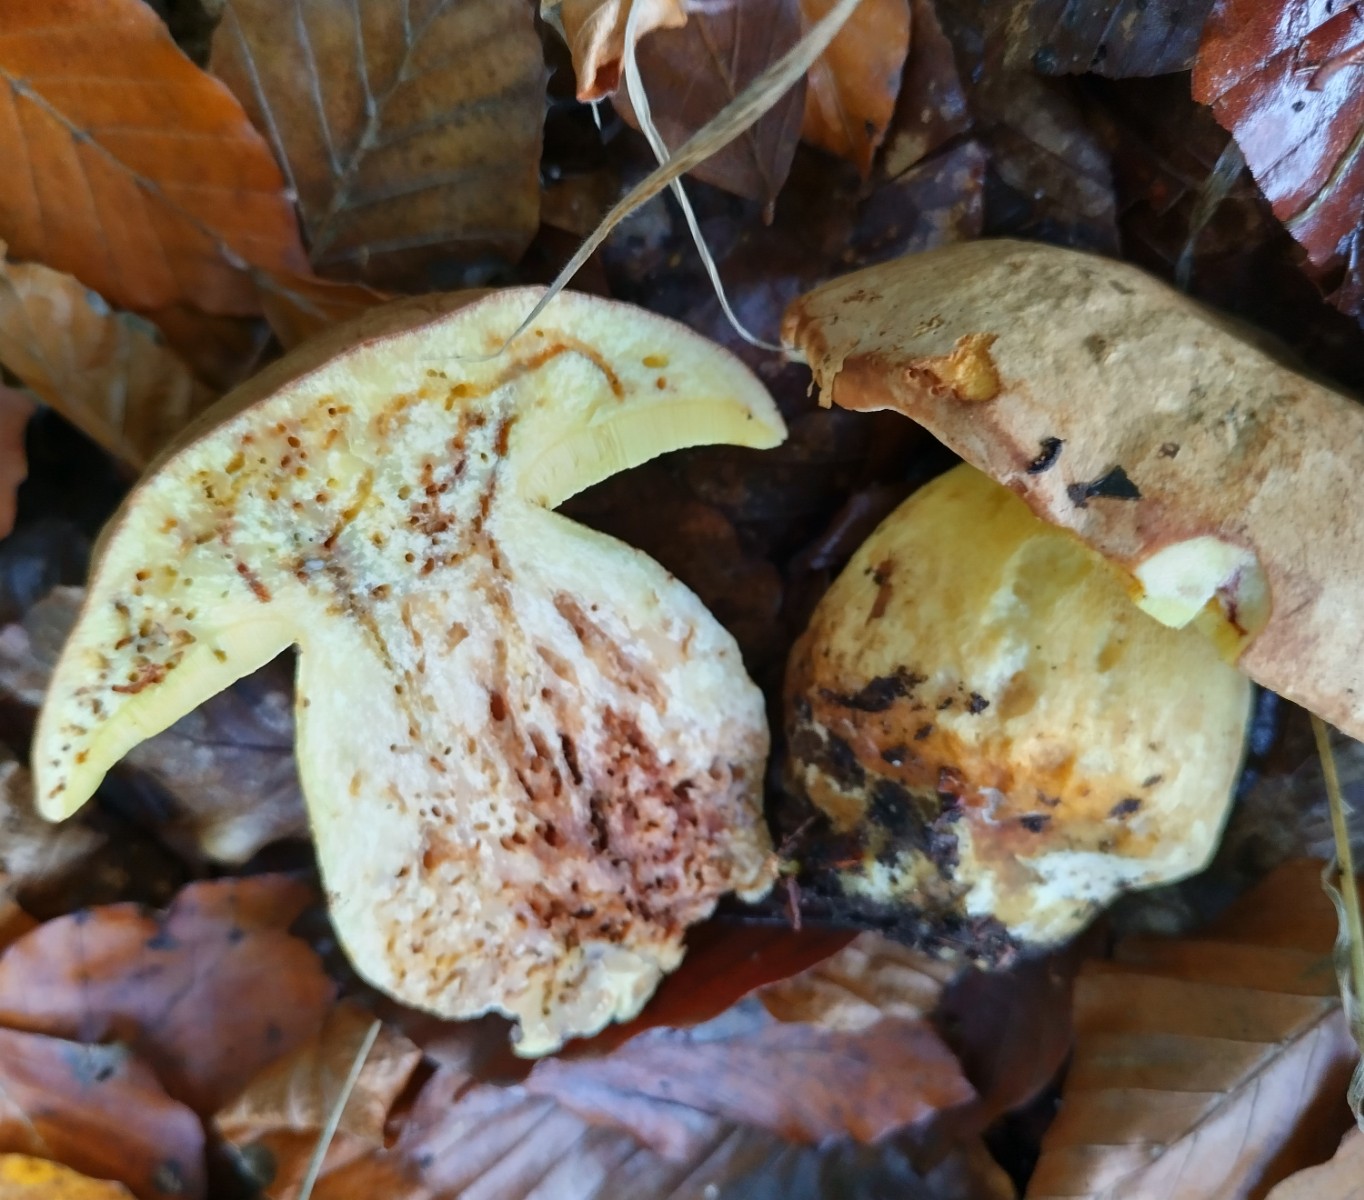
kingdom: Fungi
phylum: Basidiomycota
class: Agaricomycetes
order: Boletales
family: Boletaceae
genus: Butyriboletus
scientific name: Butyriboletus appendiculatus
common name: tenstokket rørhat
